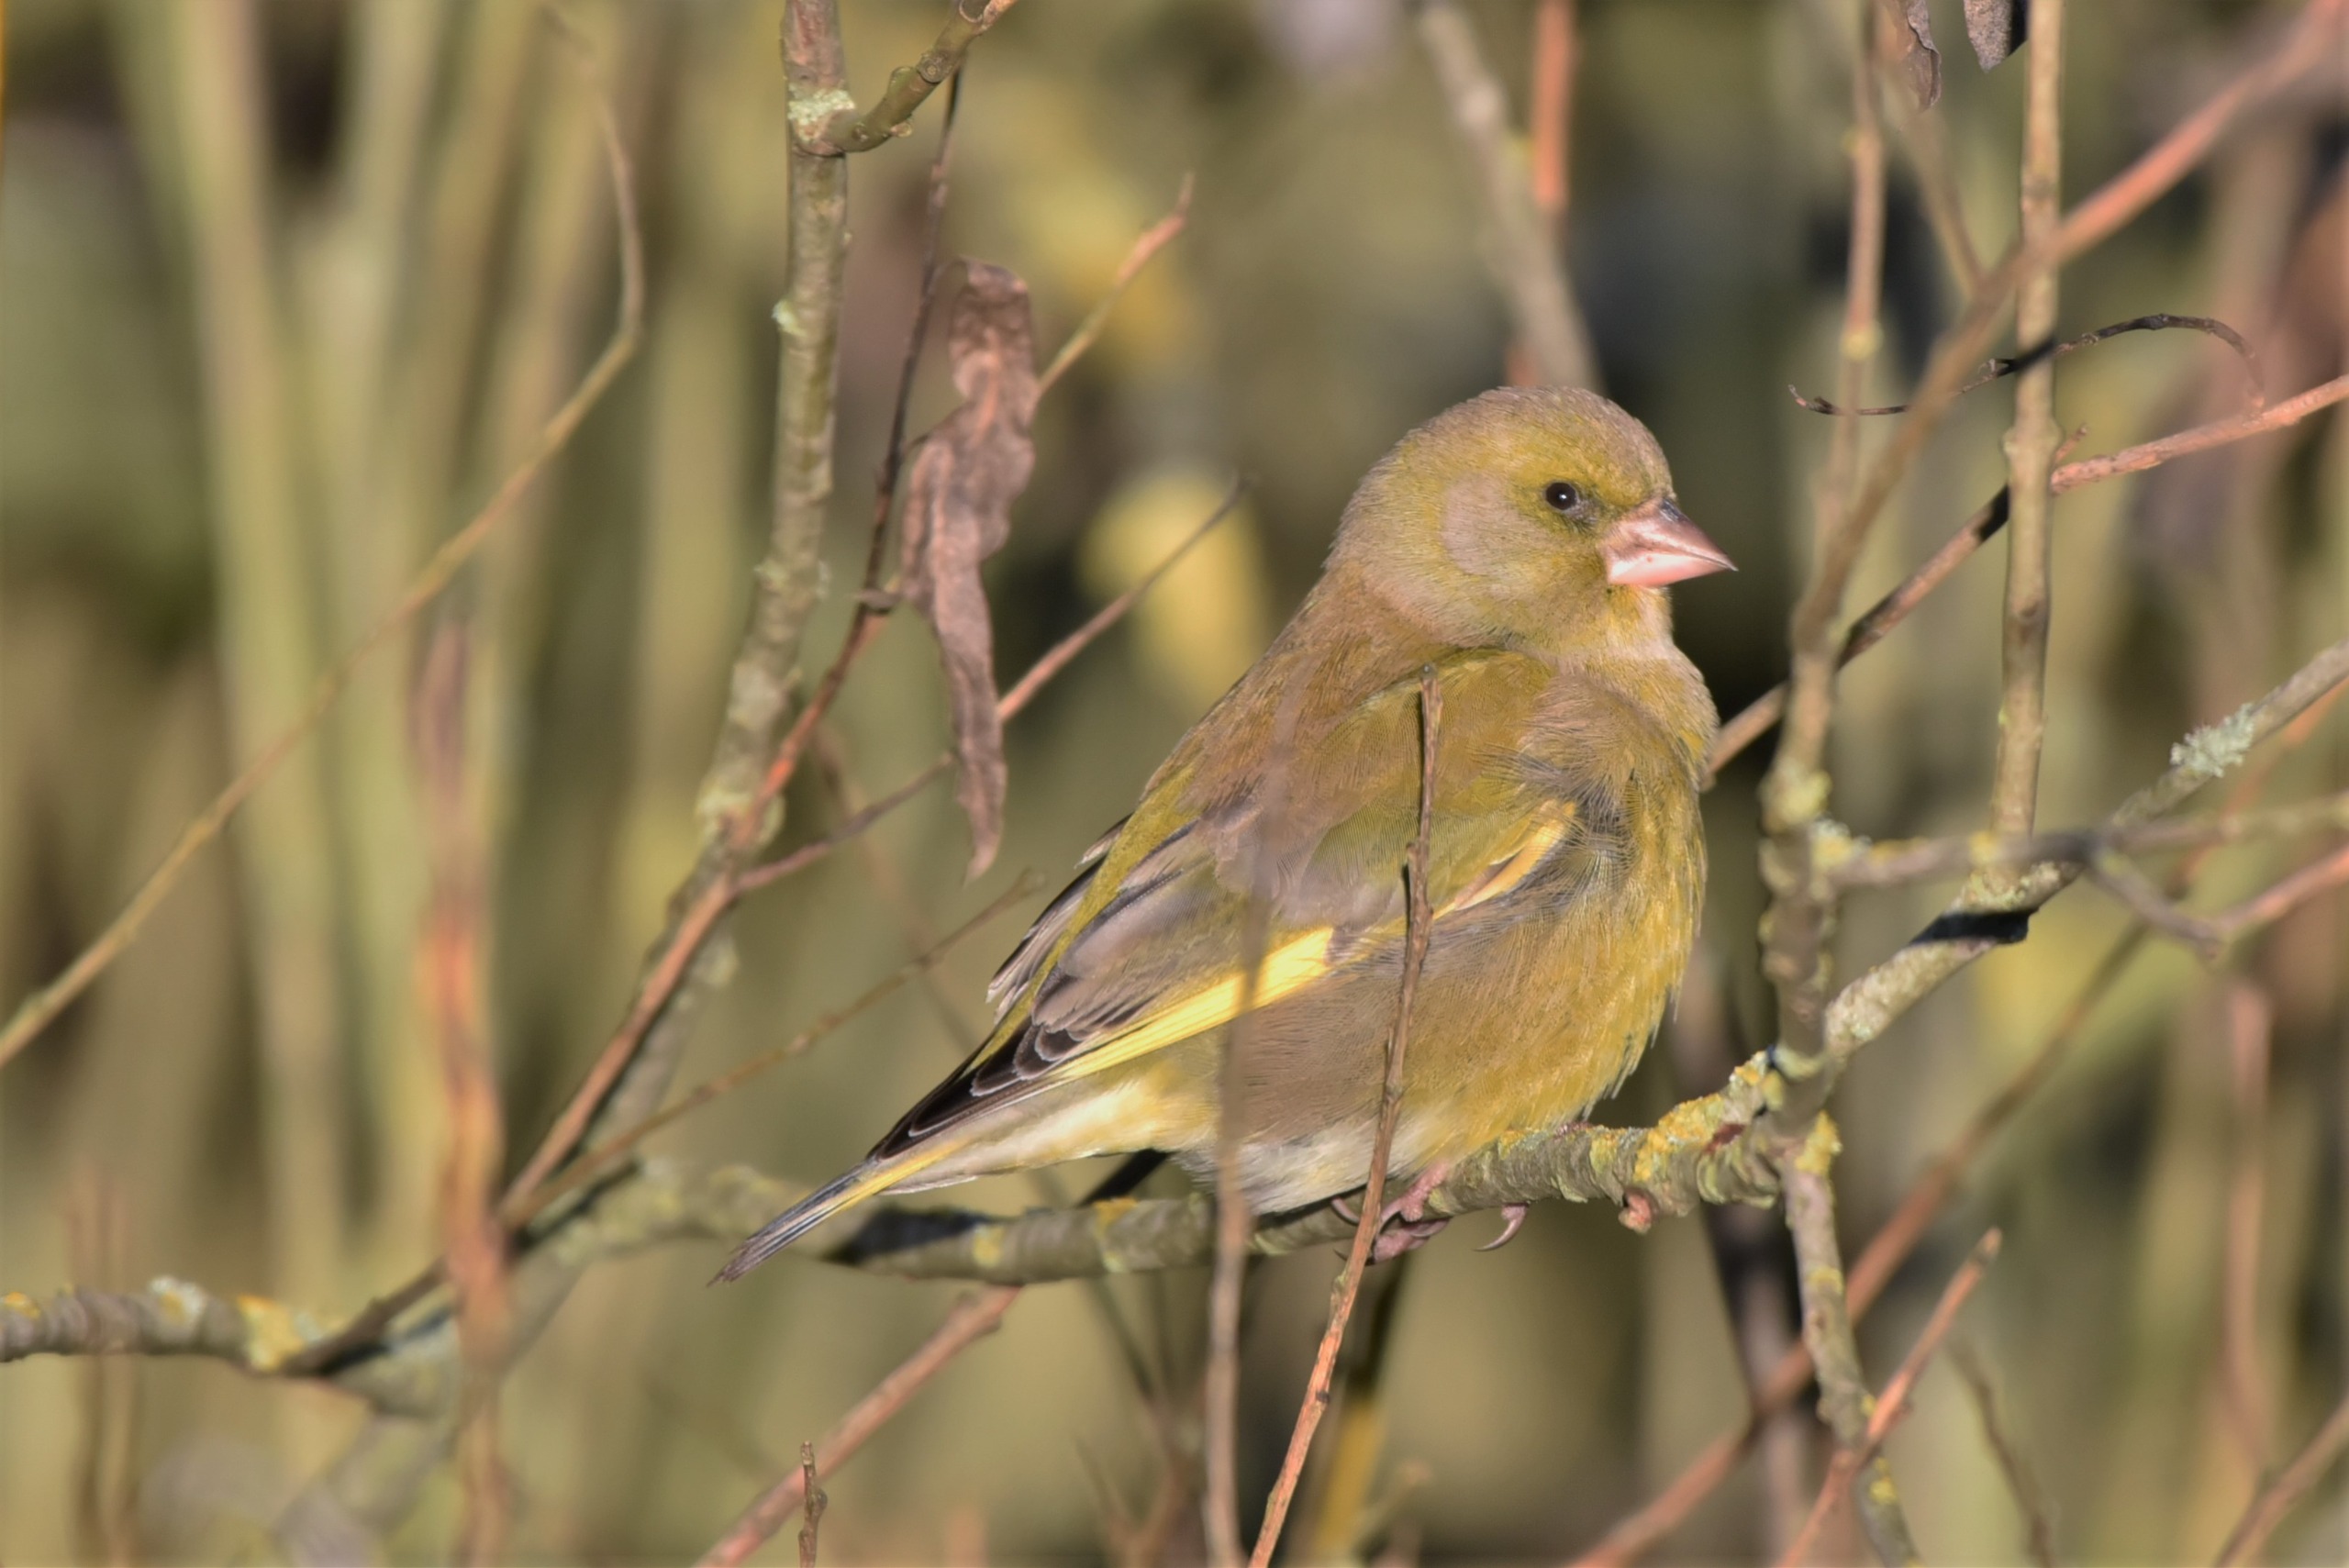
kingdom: Plantae
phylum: Tracheophyta
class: Liliopsida
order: Poales
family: Poaceae
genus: Chloris
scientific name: Chloris chloris
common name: Grønirisk
